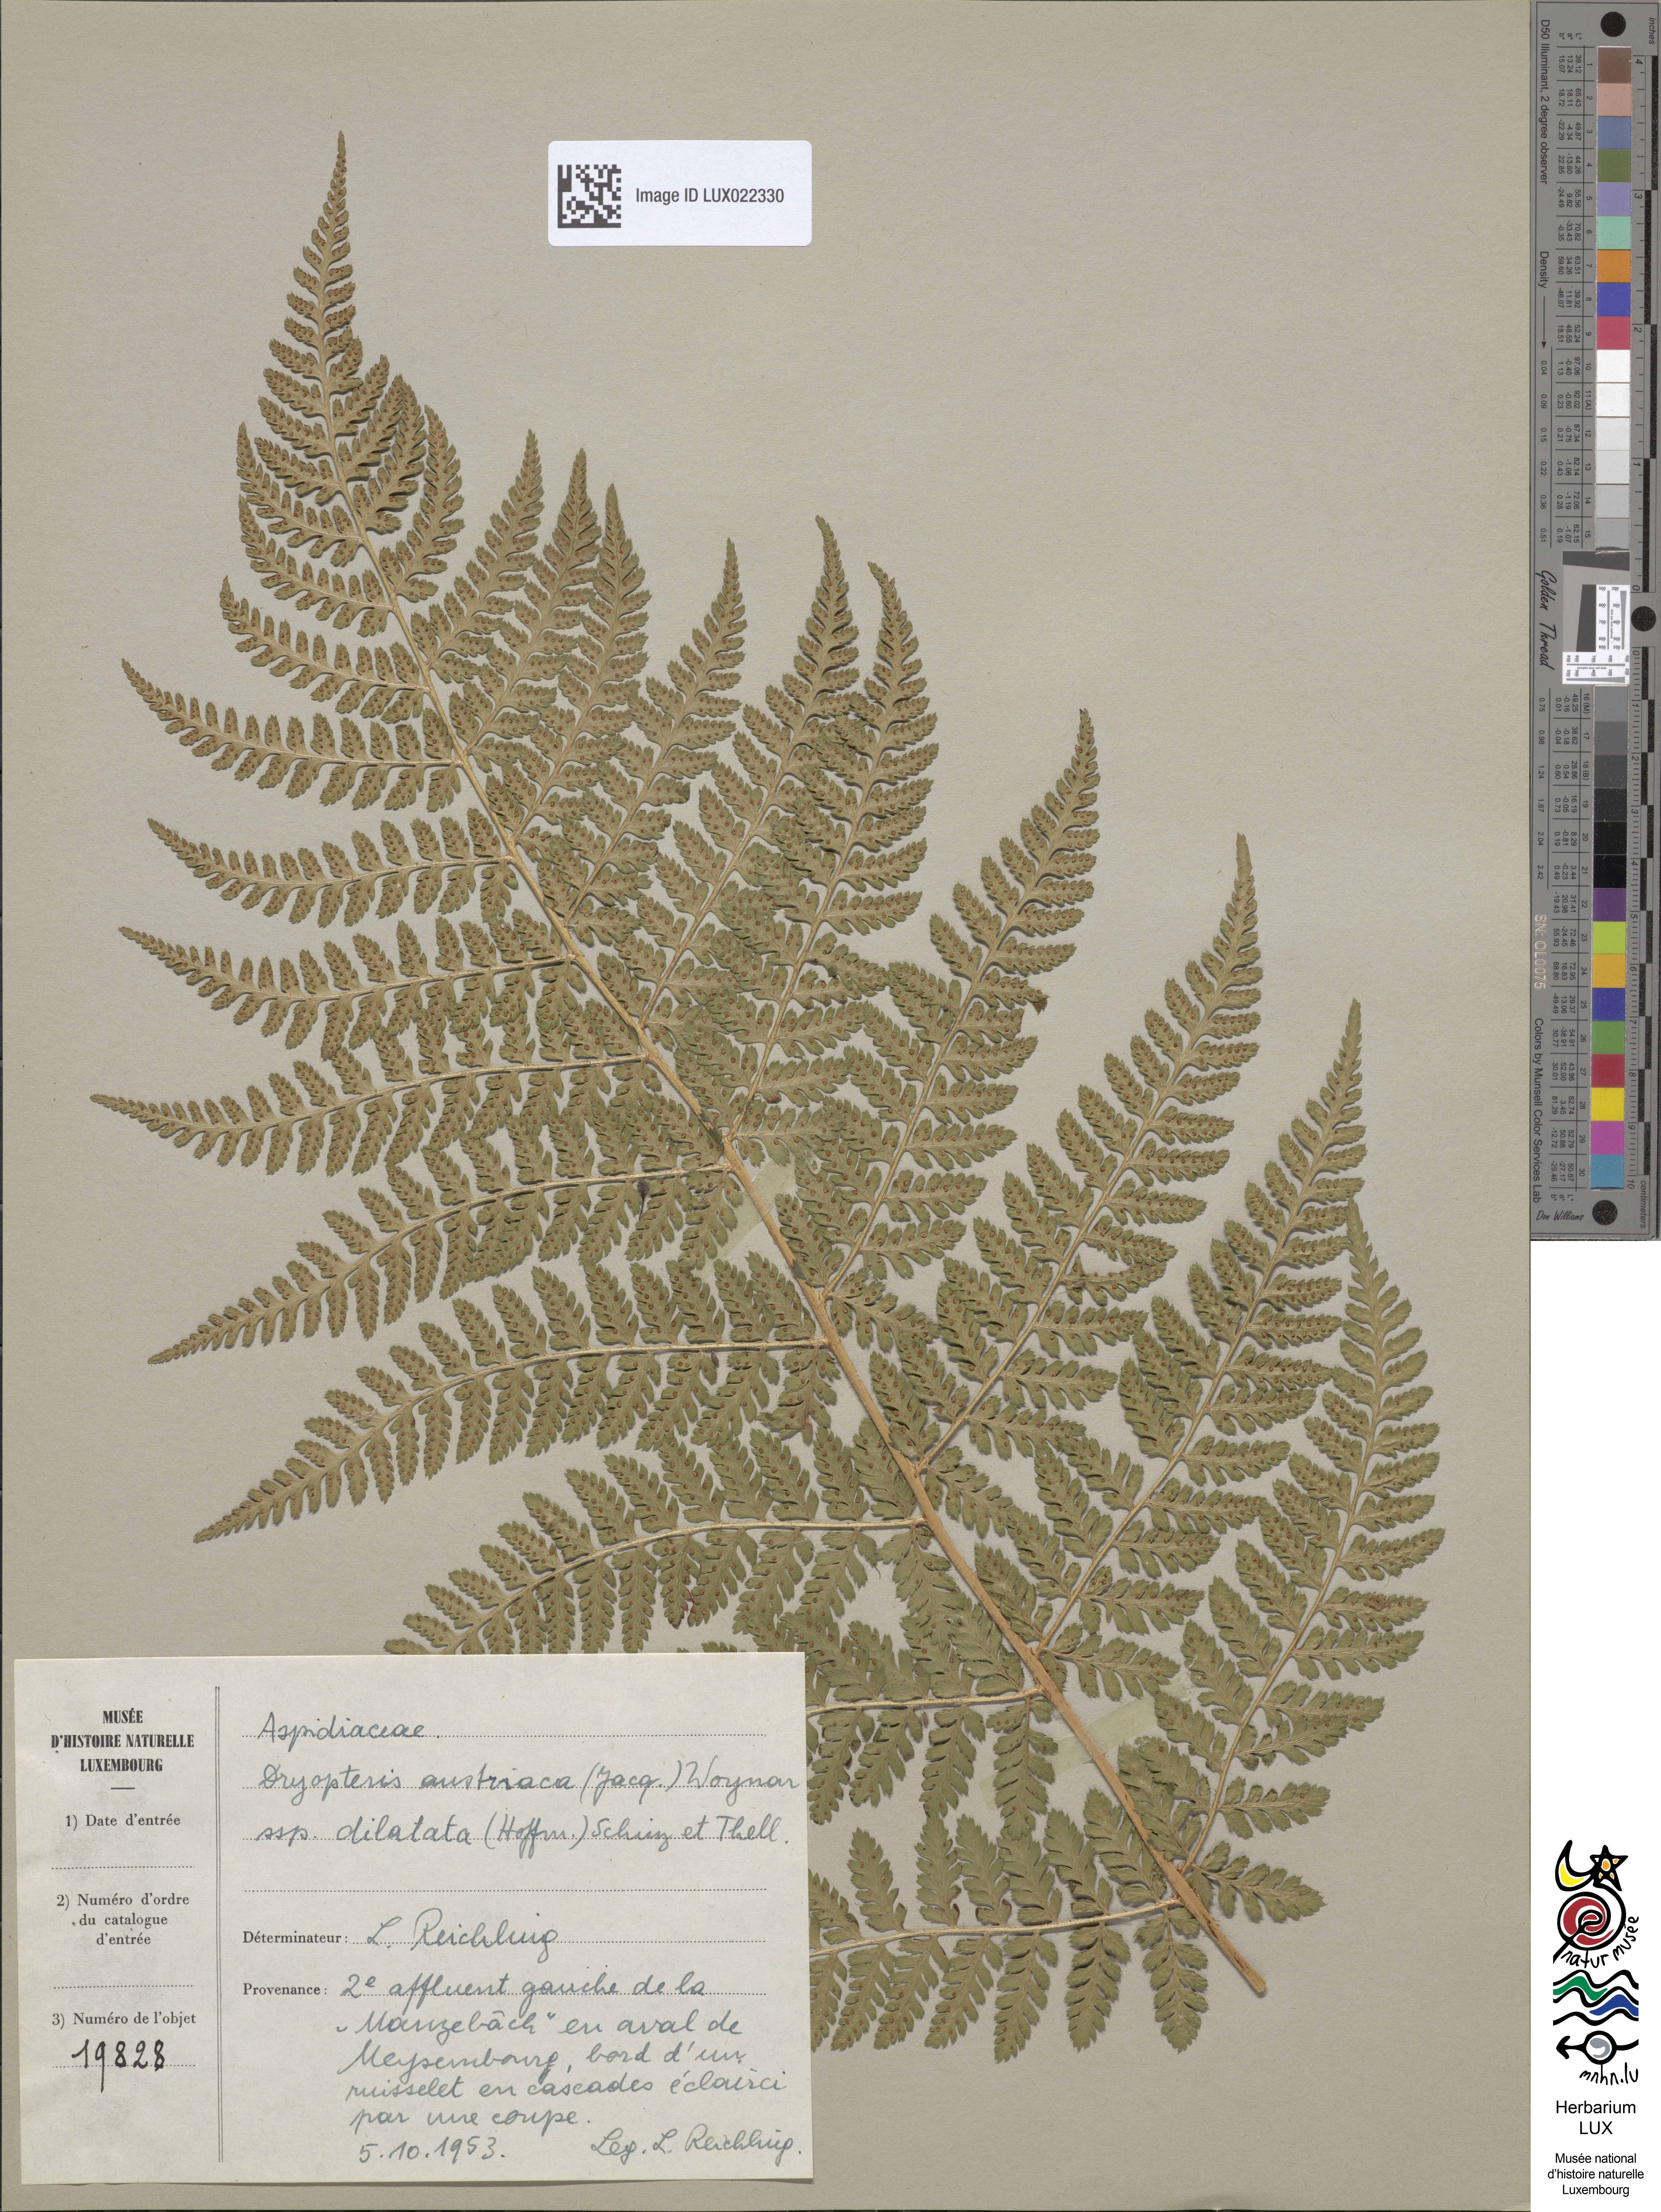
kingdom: Plantae
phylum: Tracheophyta
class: Polypodiopsida
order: Polypodiales
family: Dryopteridaceae
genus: Dryopteris
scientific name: Dryopteris dilatata
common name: Broad buckler-fern
